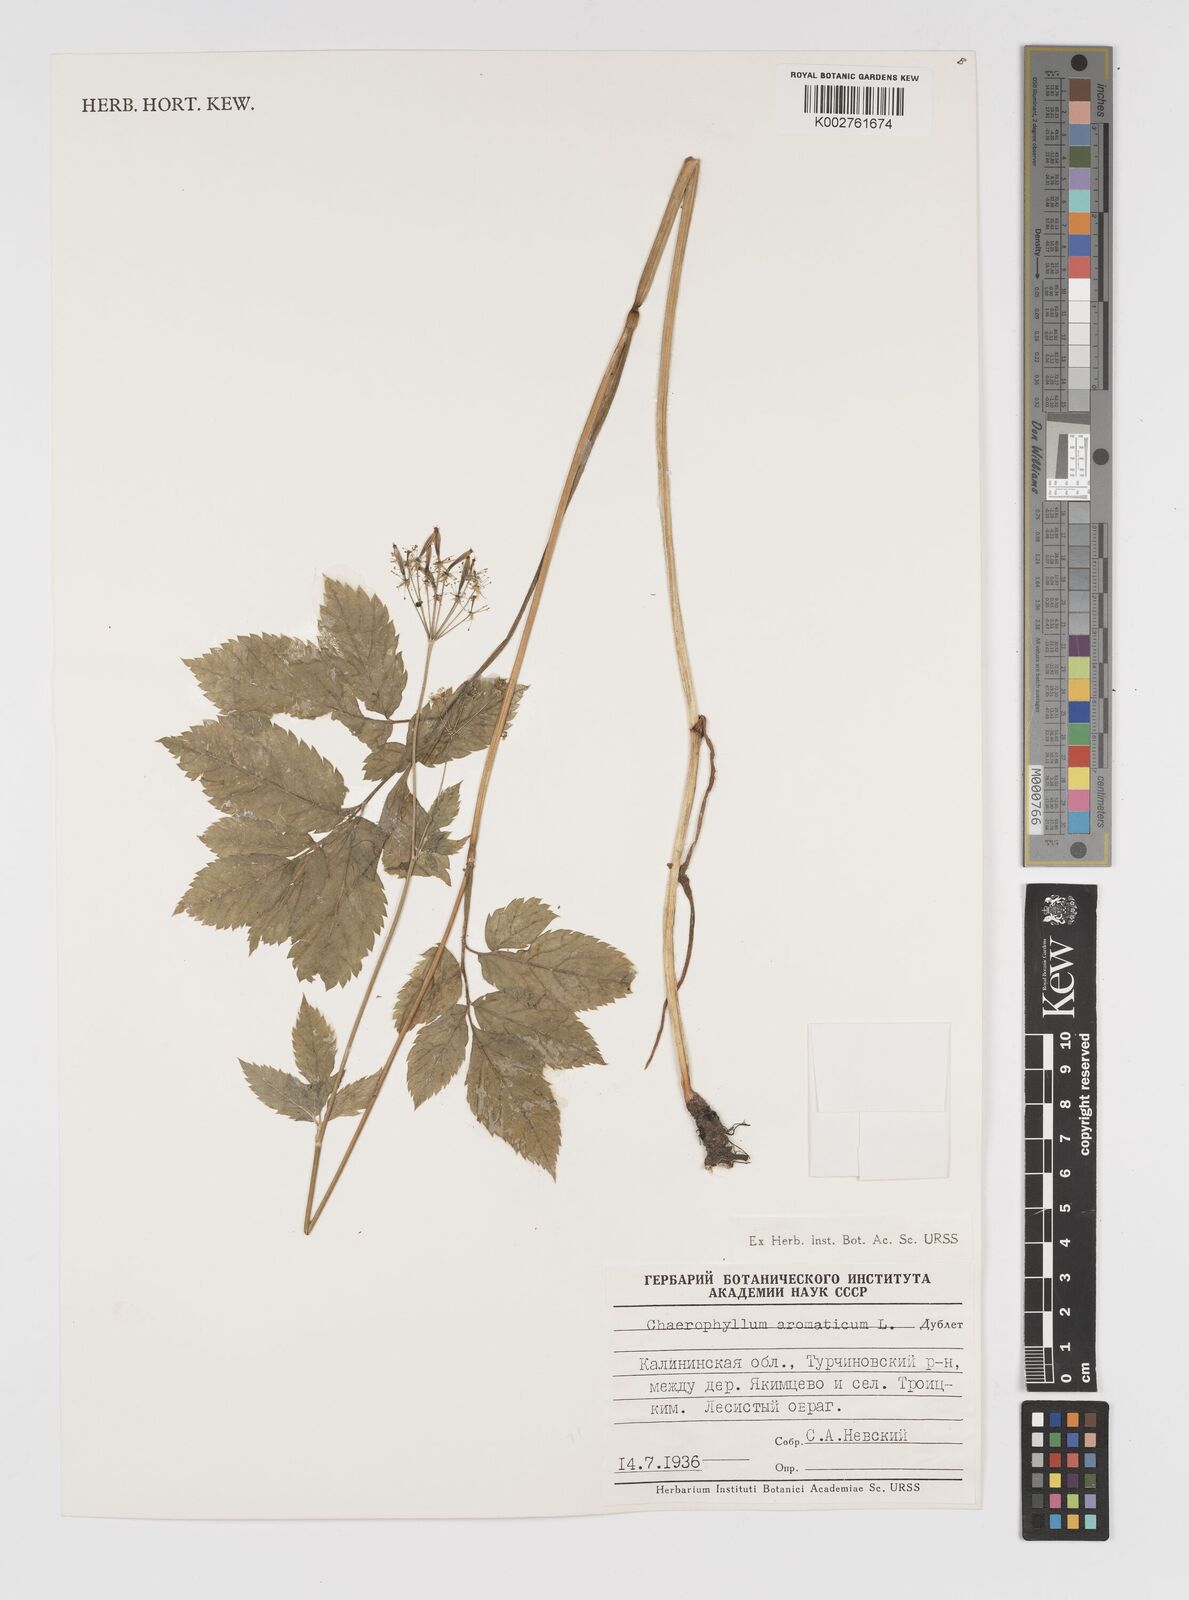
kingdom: Plantae
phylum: Tracheophyta
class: Magnoliopsida
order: Apiales
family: Apiaceae
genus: Chaerophyllum
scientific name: Chaerophyllum aromaticum
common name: Broadleaf chervil
